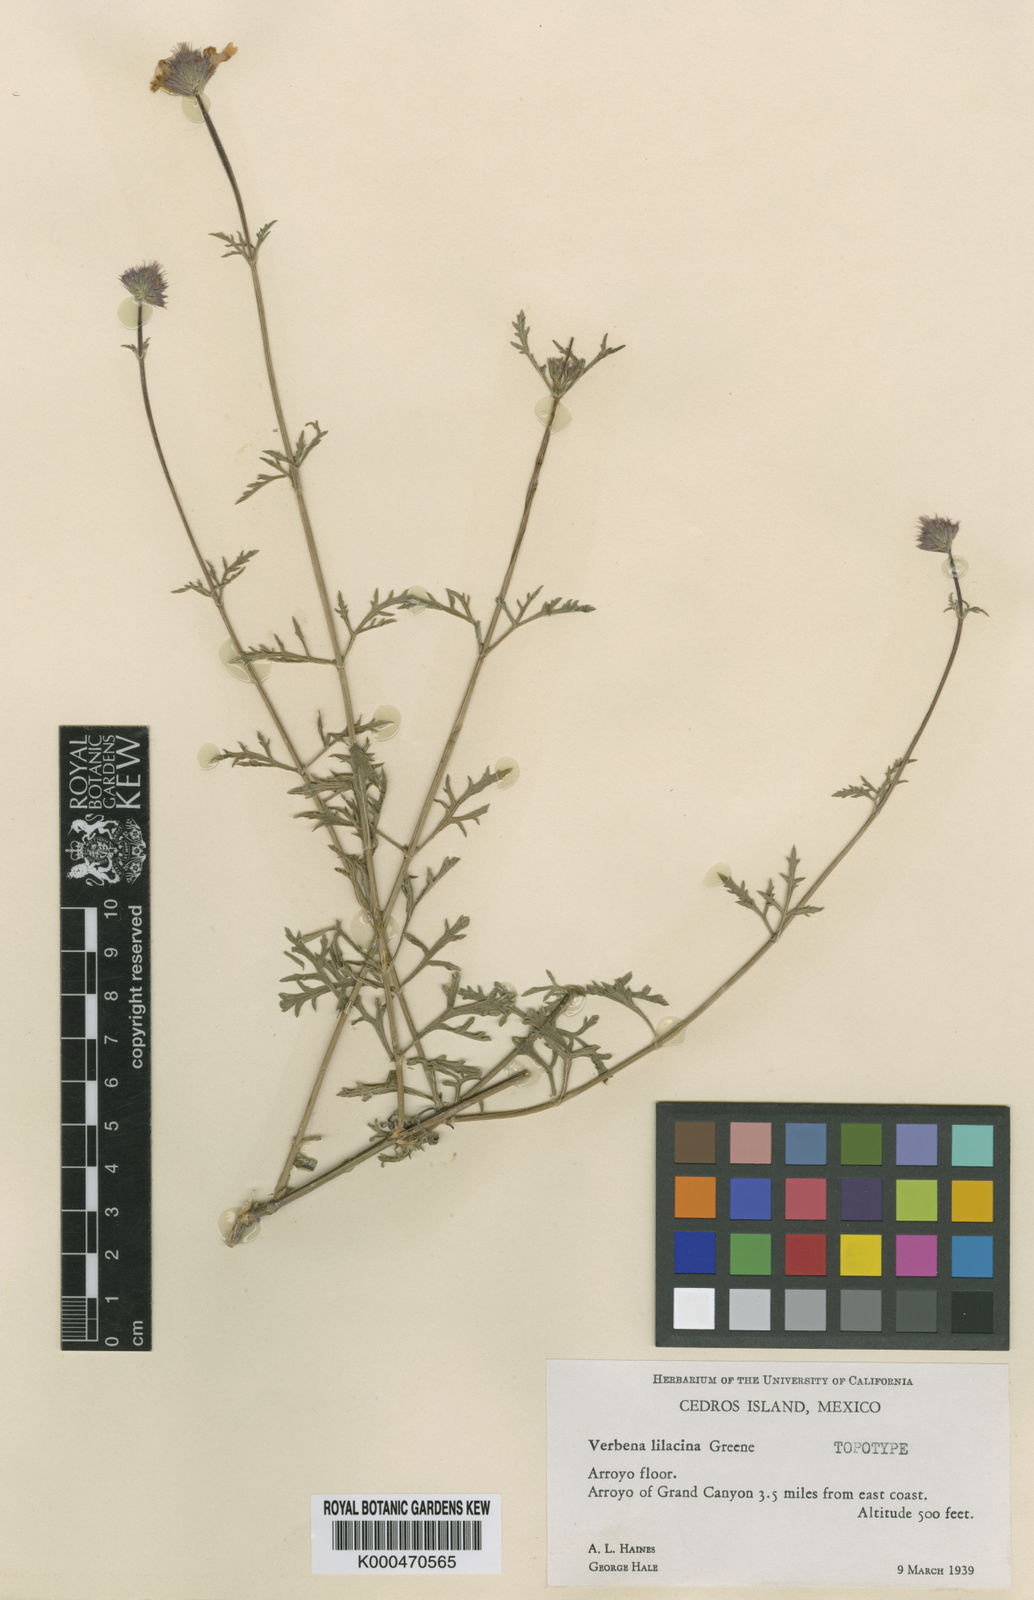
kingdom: Plantae
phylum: Tracheophyta
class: Magnoliopsida
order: Lamiales
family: Verbenaceae
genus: Verbena
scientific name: Verbena lilacina
